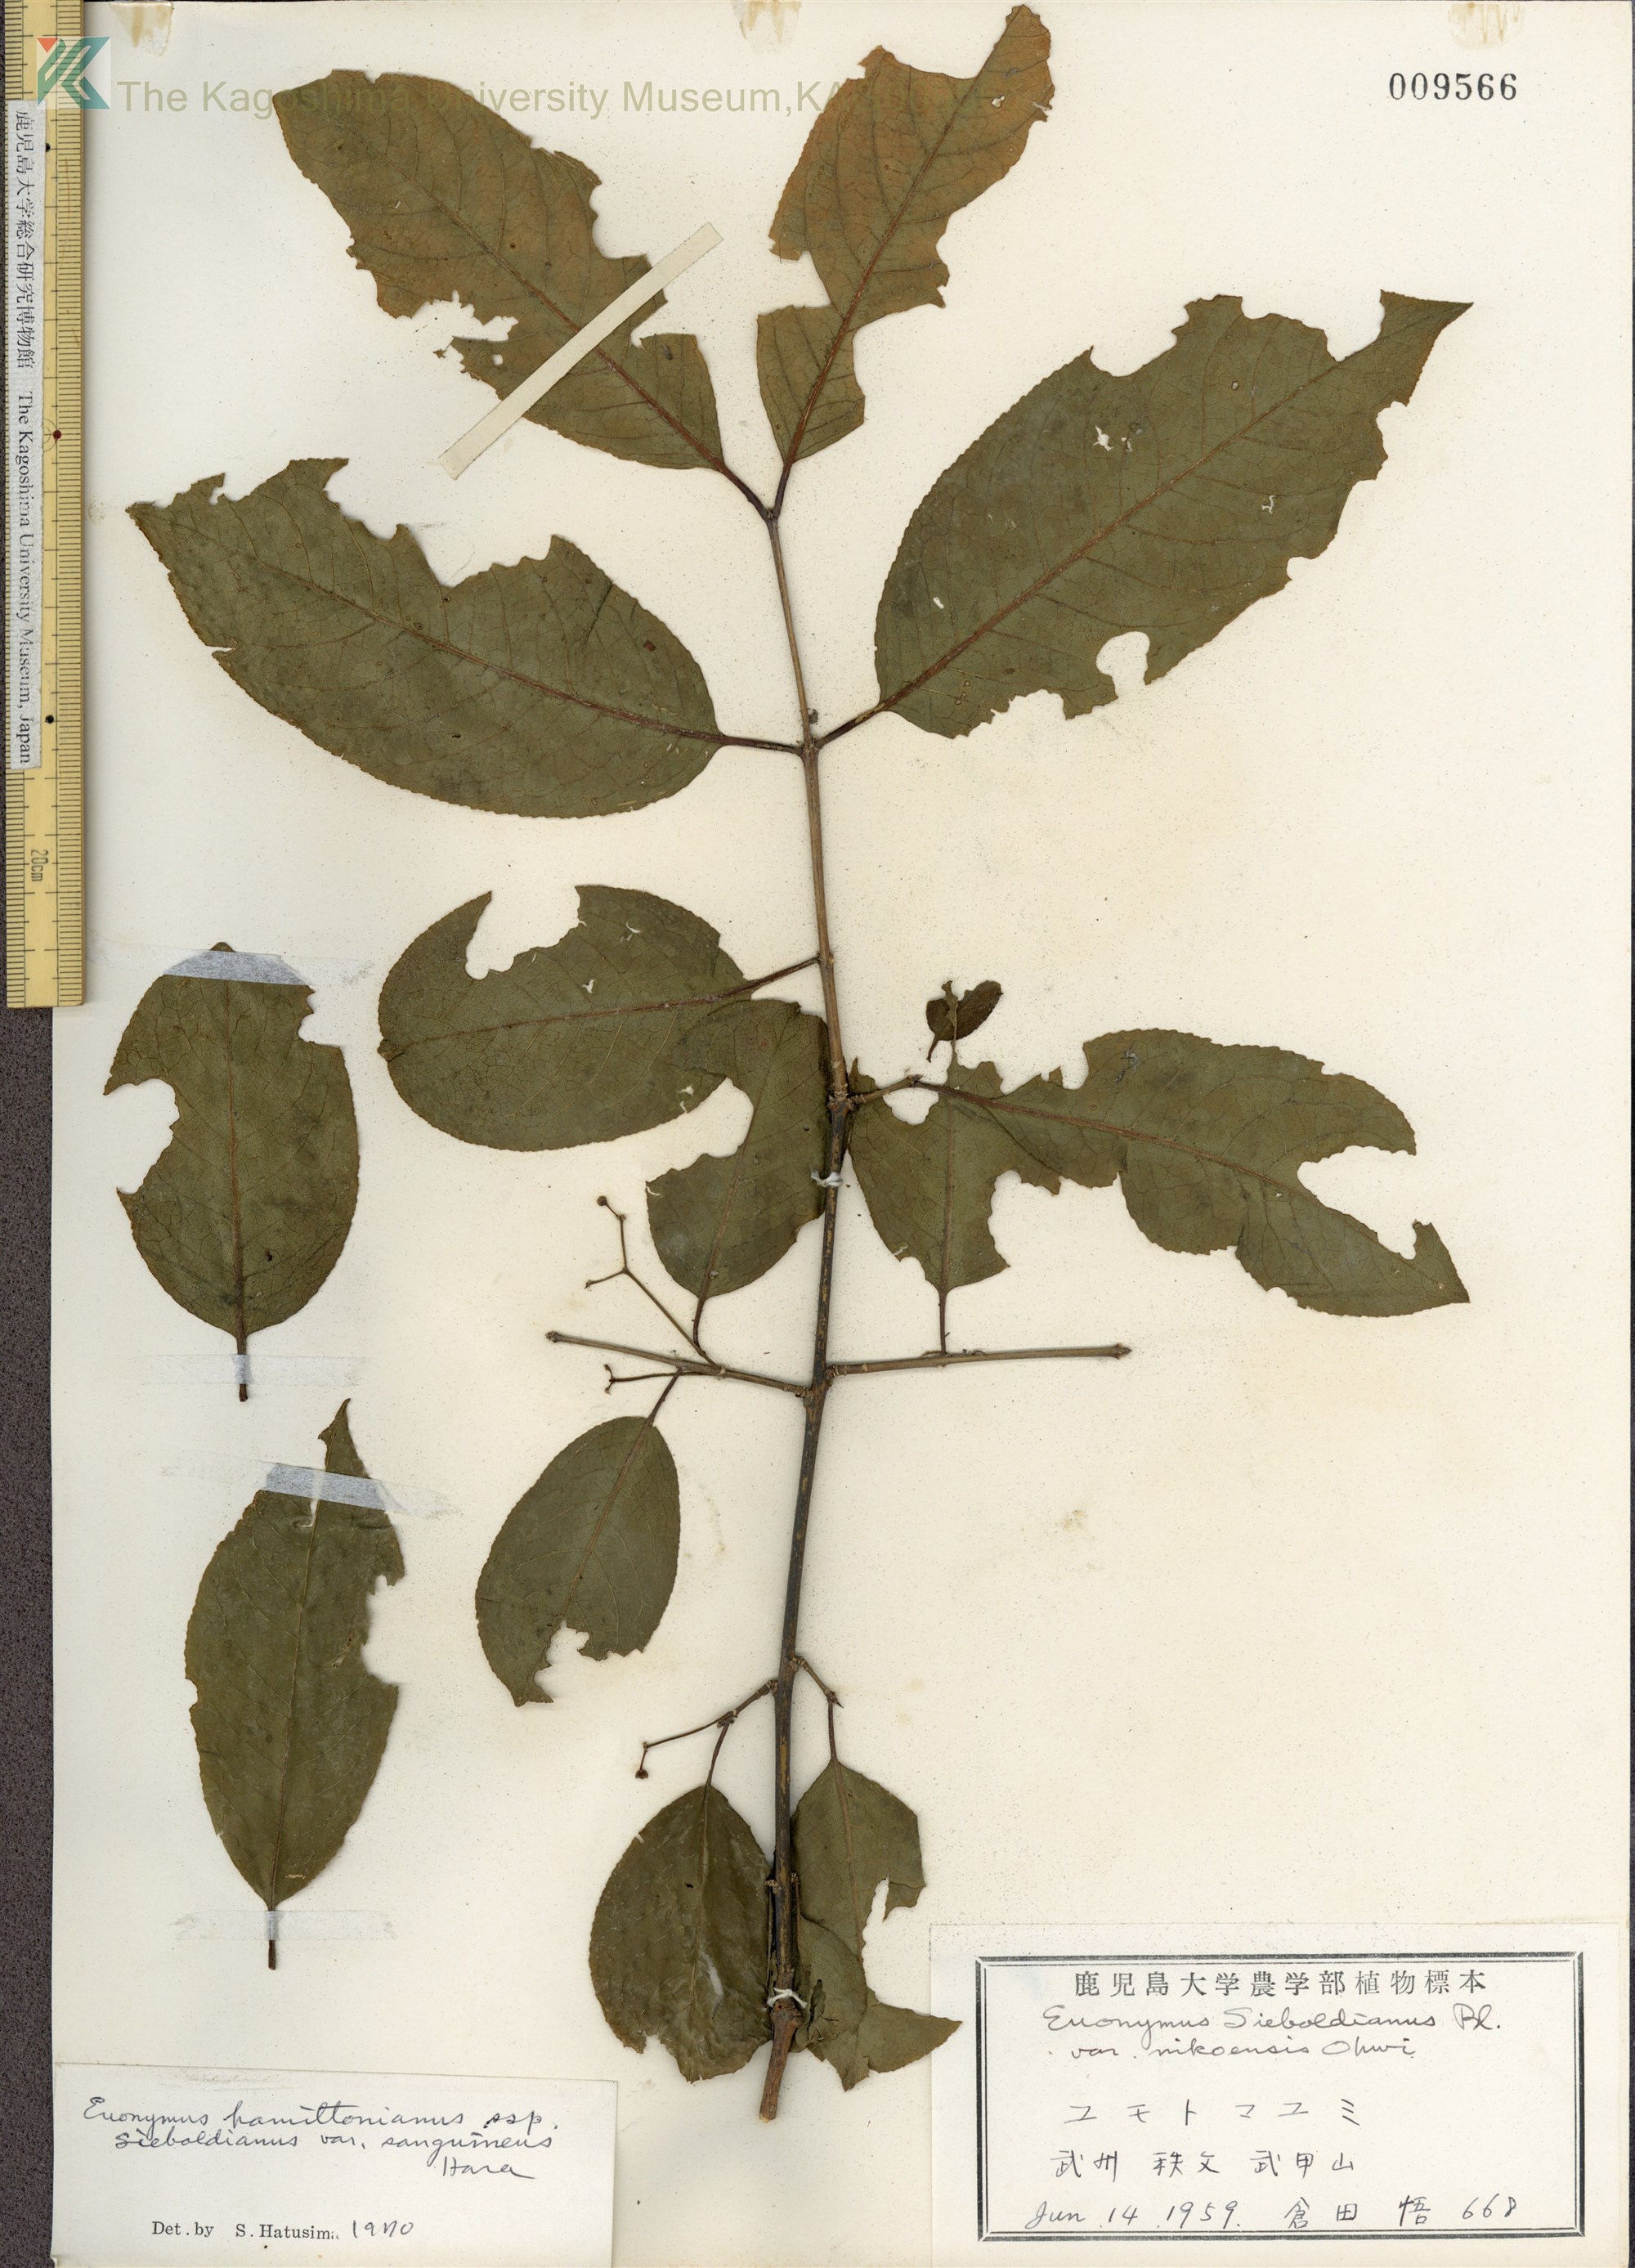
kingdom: Plantae
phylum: Tracheophyta
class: Magnoliopsida
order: Celastrales
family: Celastraceae
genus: Euonymus
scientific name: Euonymus hamiltonianus
